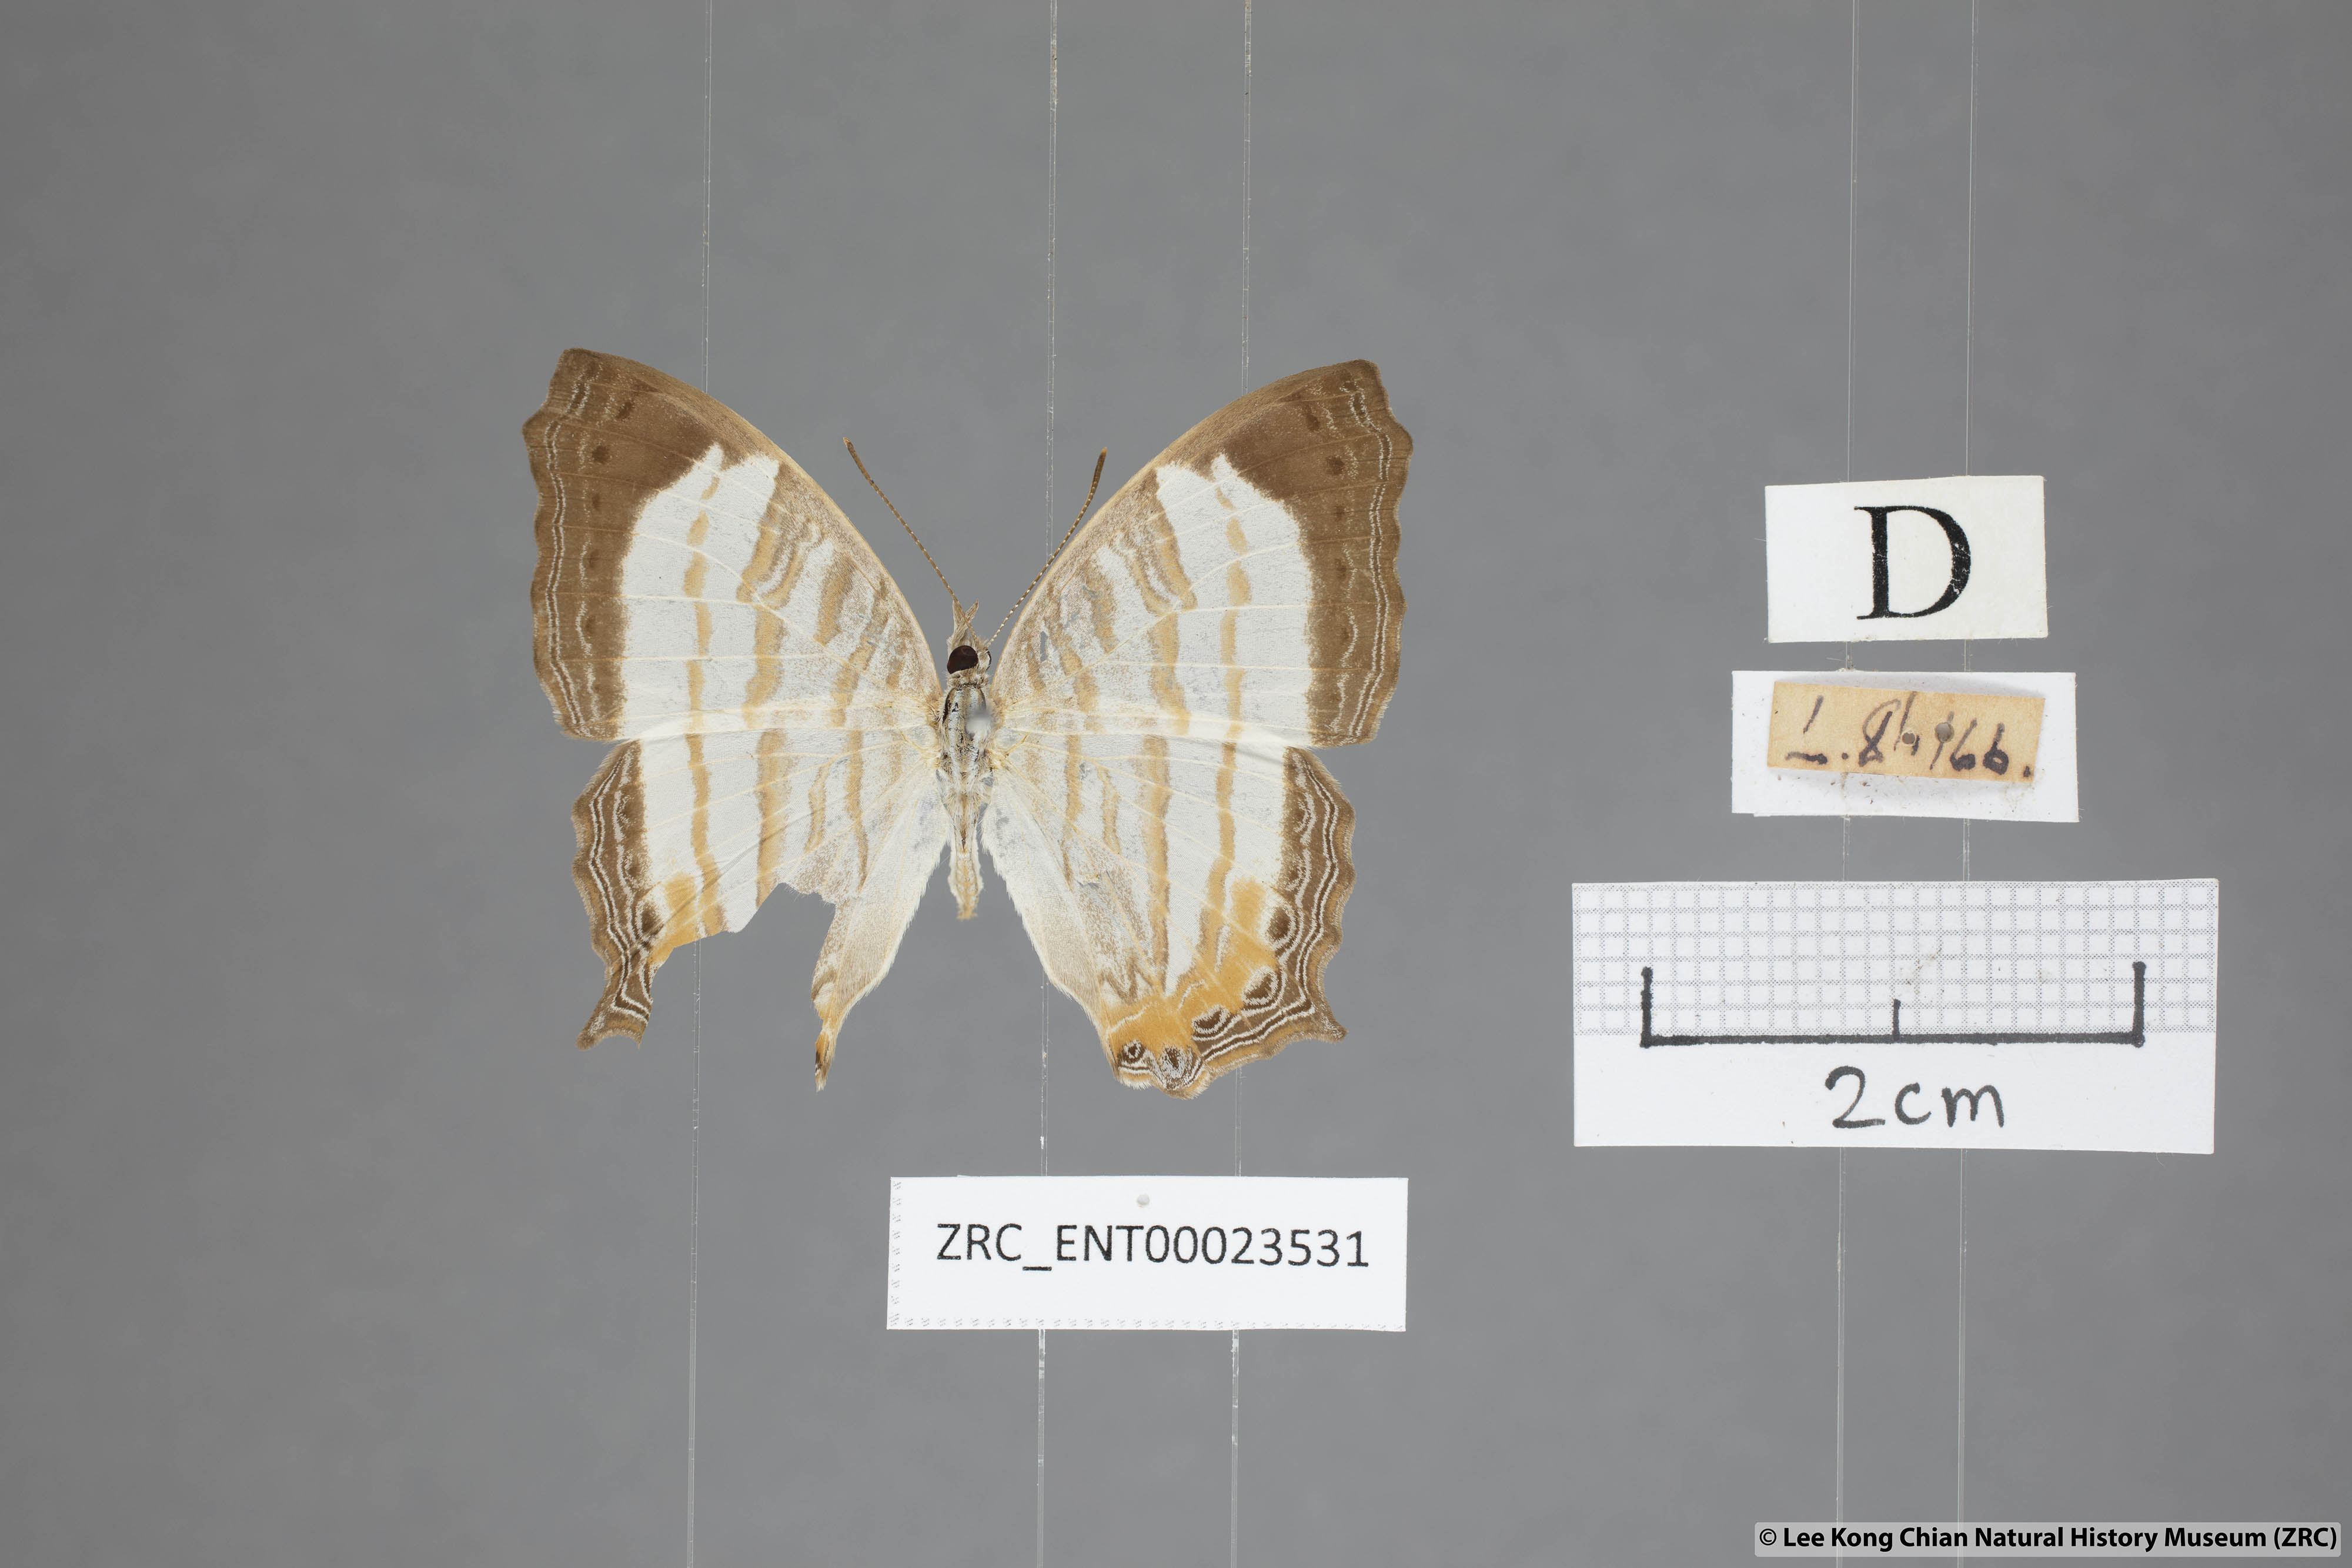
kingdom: Animalia
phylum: Arthropoda
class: Insecta
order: Lepidoptera
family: Nymphalidae
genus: Cyrestis
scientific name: Cyrestis themire
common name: Little mapwing
